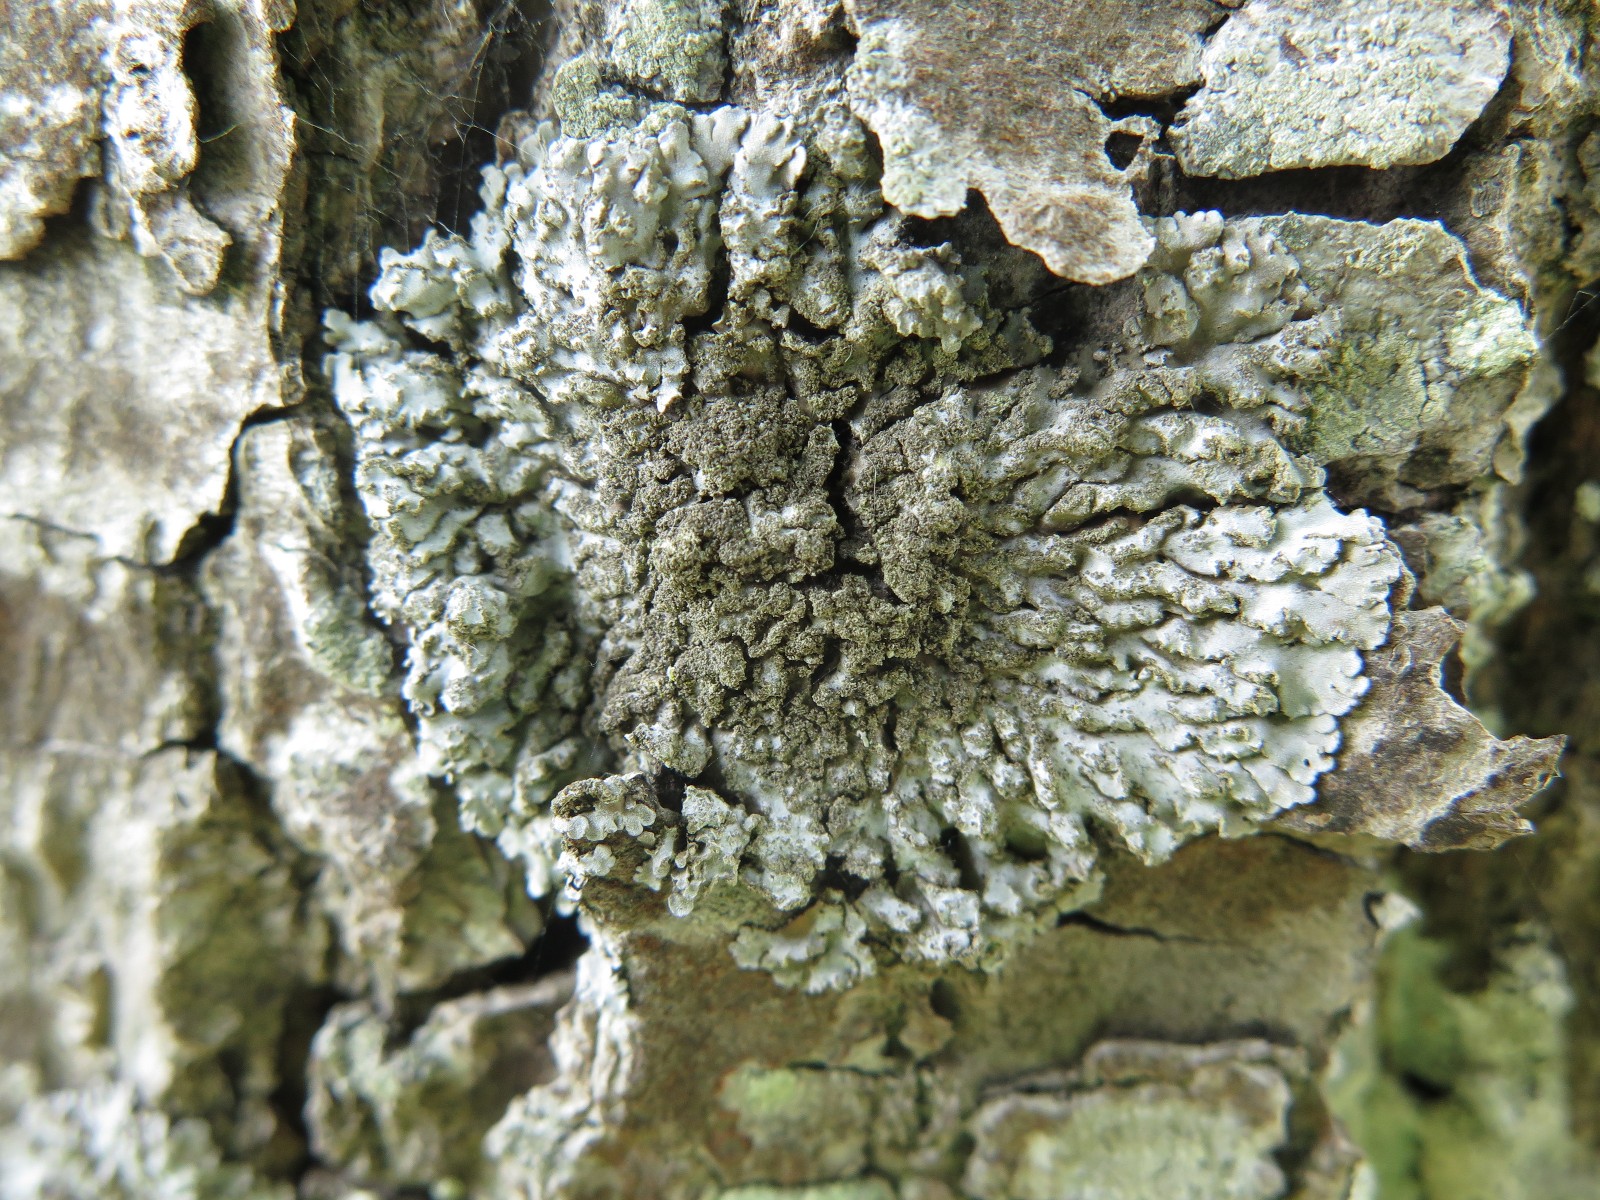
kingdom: Fungi
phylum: Ascomycota
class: Lecanoromycetes
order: Caliciales
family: Physciaceae
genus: Physconia
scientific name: Physconia
